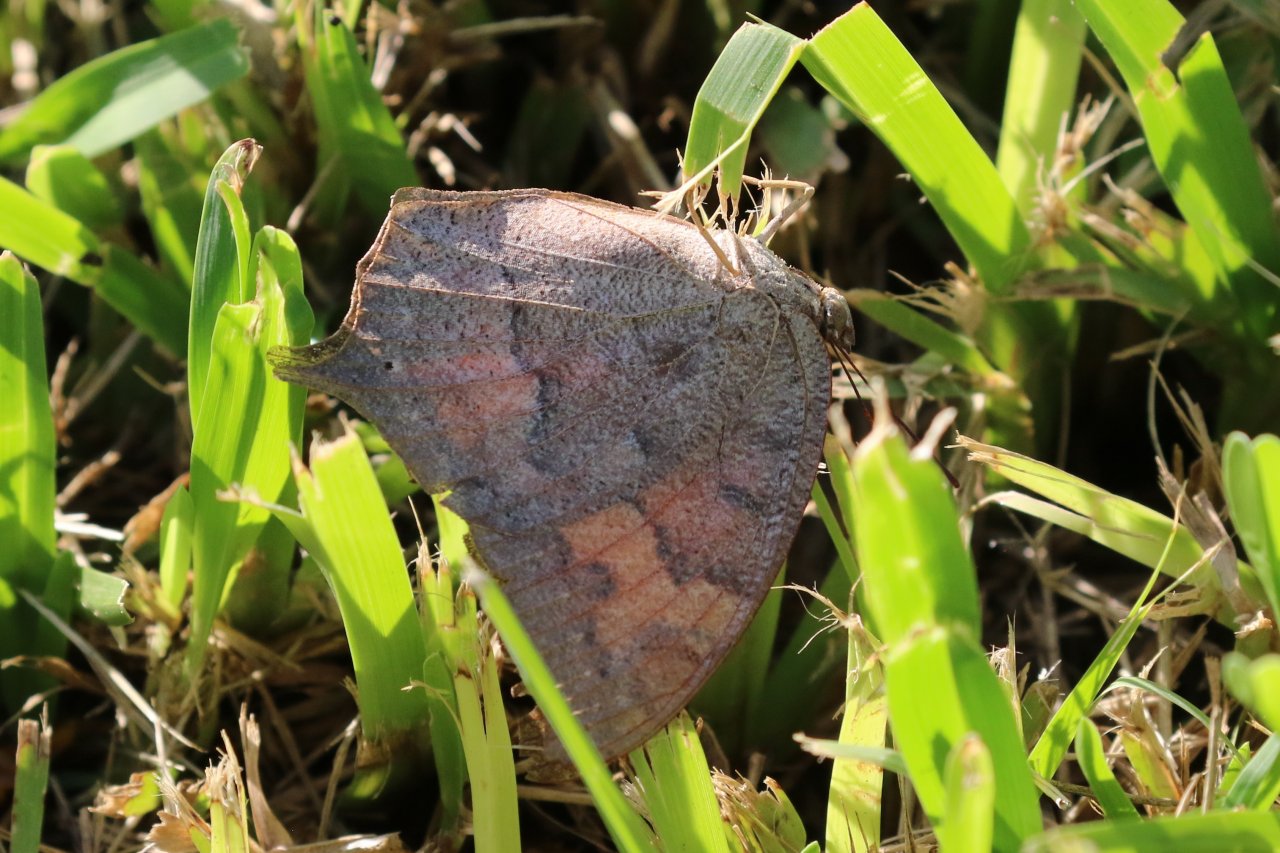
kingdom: Animalia
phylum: Arthropoda
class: Insecta
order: Lepidoptera
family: Nymphalidae
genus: Anaea
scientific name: Anaea andria
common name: Goatweed Leafwing
